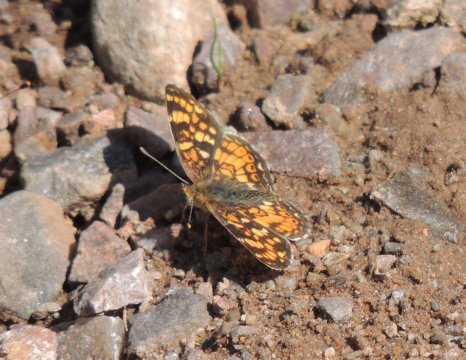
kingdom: Animalia
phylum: Arthropoda
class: Insecta
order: Lepidoptera
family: Nymphalidae
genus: Phyciodes
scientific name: Phyciodes tharos
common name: Field Crescent
